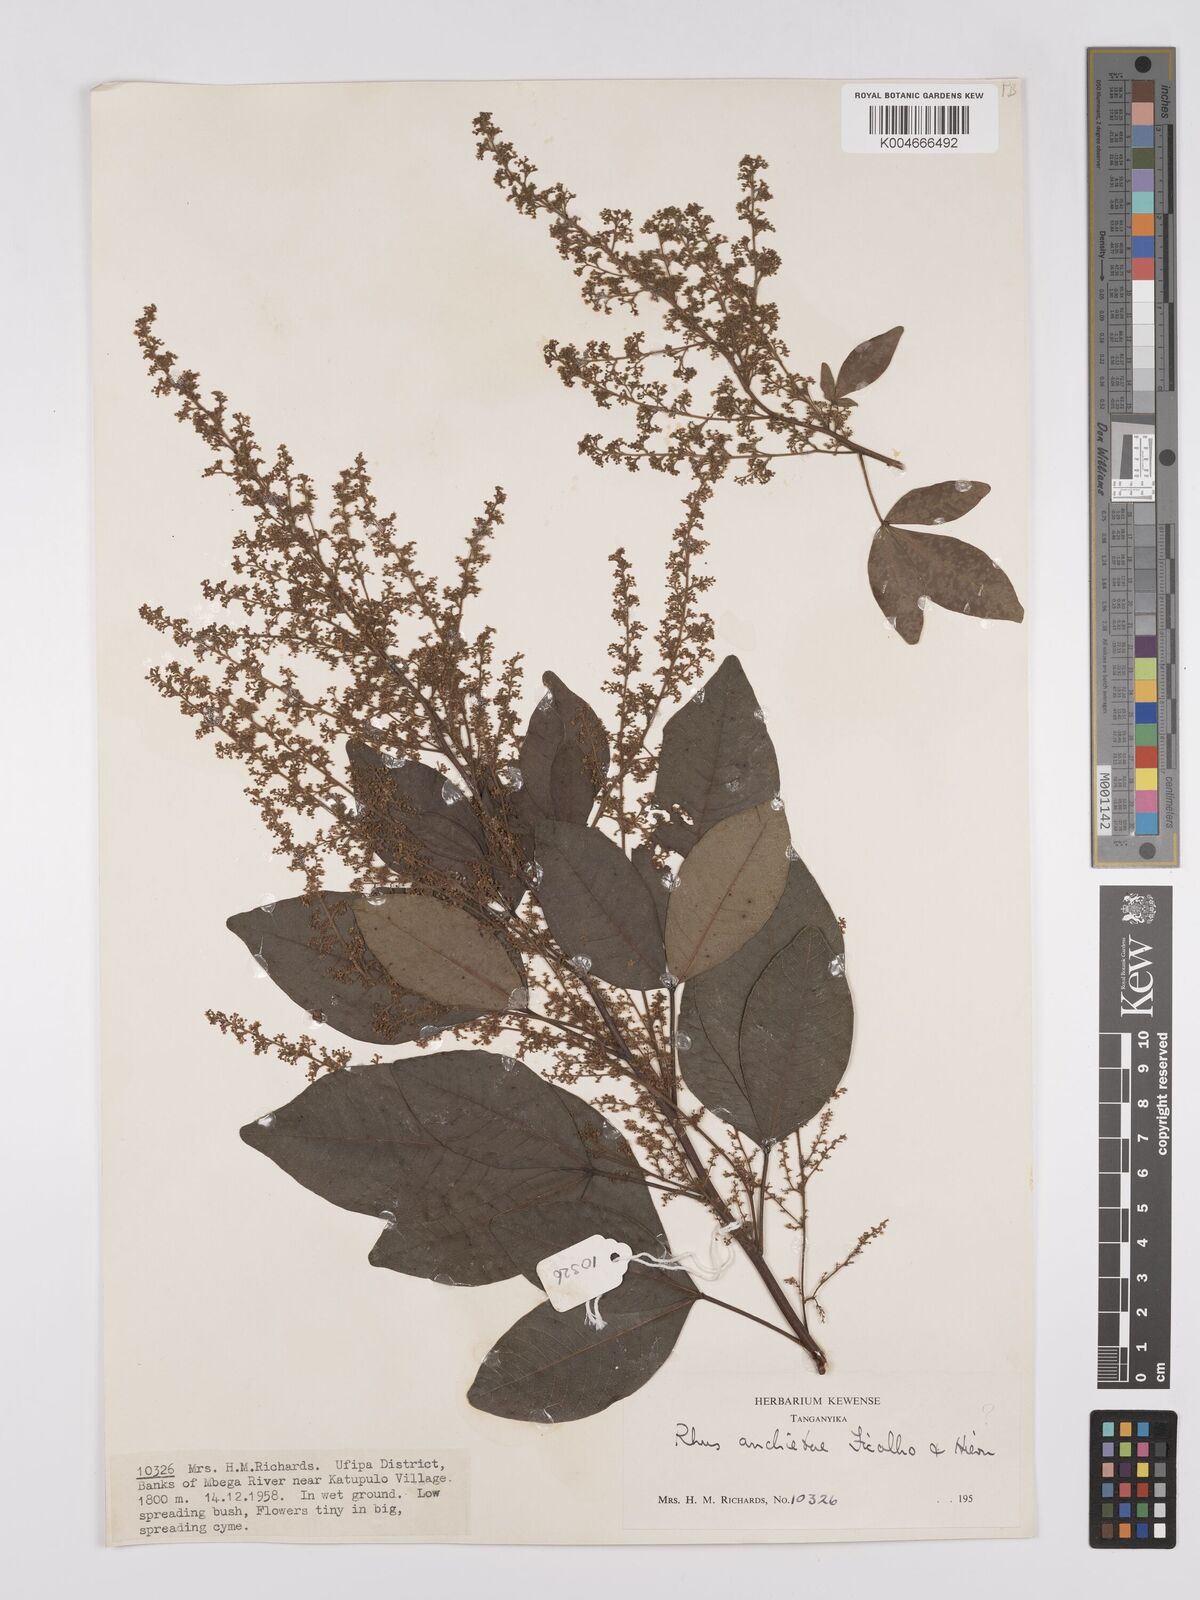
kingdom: Plantae
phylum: Tracheophyta
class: Magnoliopsida
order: Sapindales
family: Anacardiaceae
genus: Searsia
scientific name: Searsia anchietae
